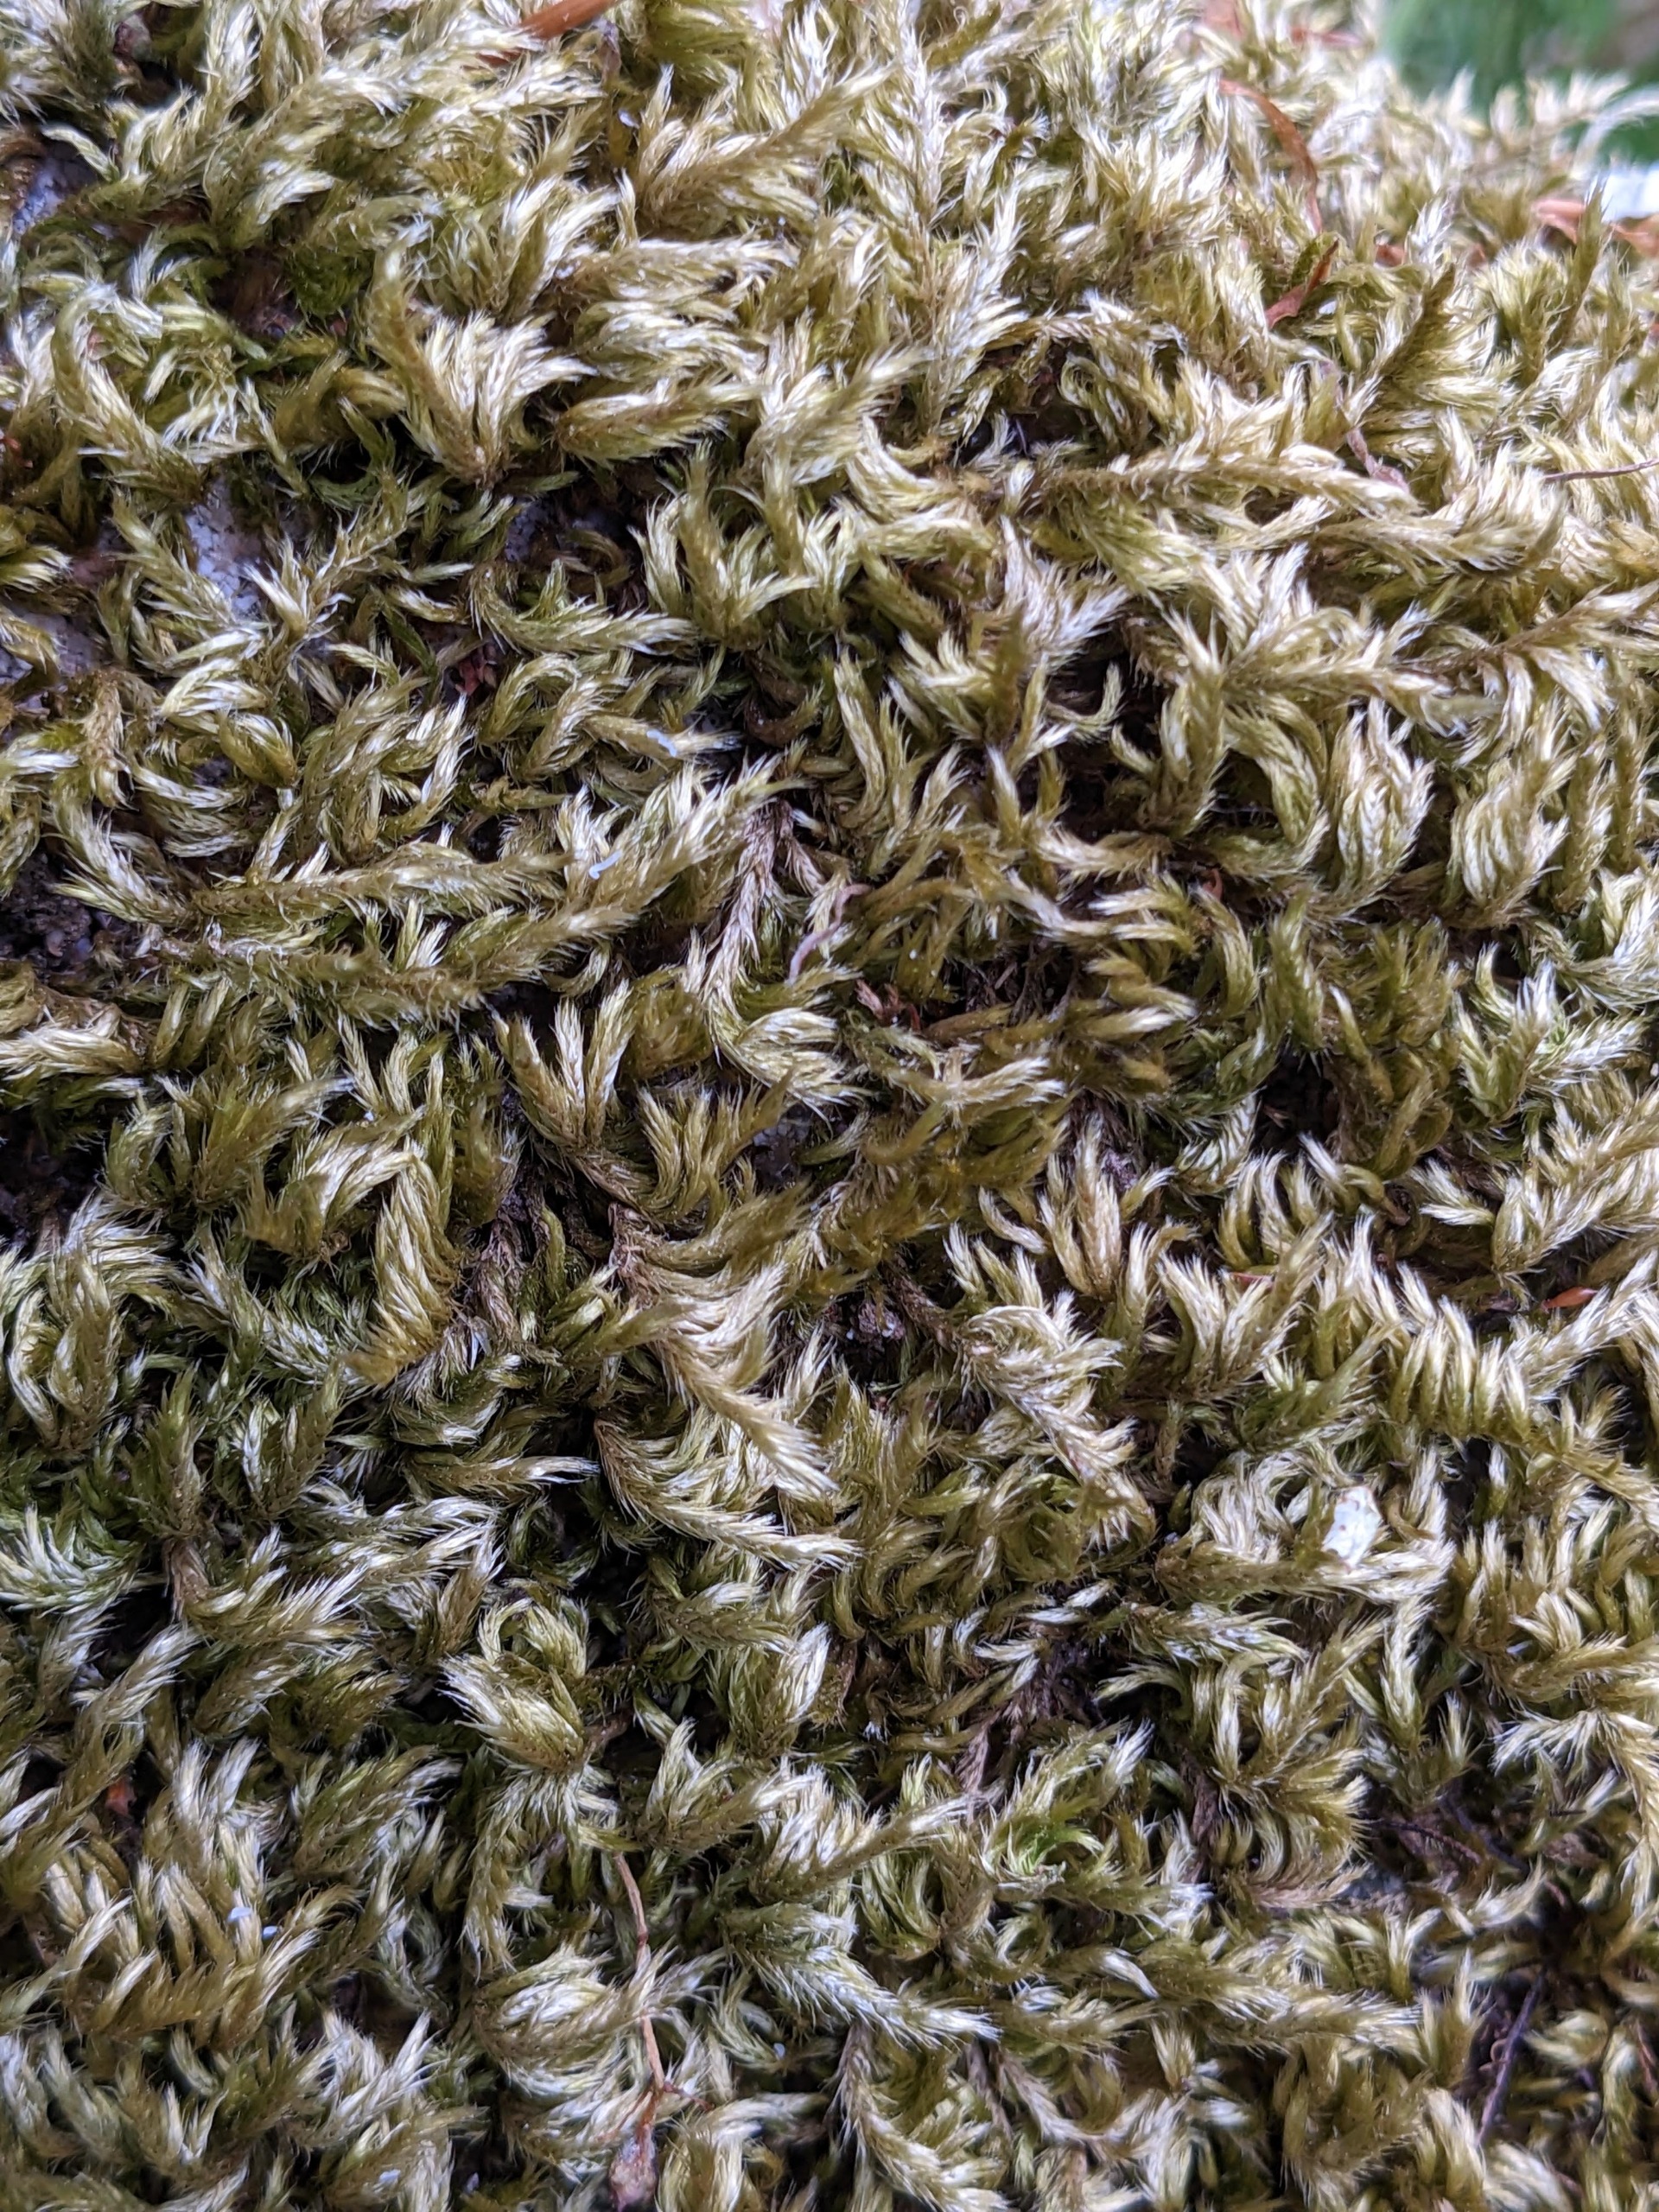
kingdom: Plantae
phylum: Bryophyta
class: Bryopsida
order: Hypnales
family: Brachytheciaceae
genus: Homalothecium
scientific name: Homalothecium sericeum
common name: Krybende silkemos
